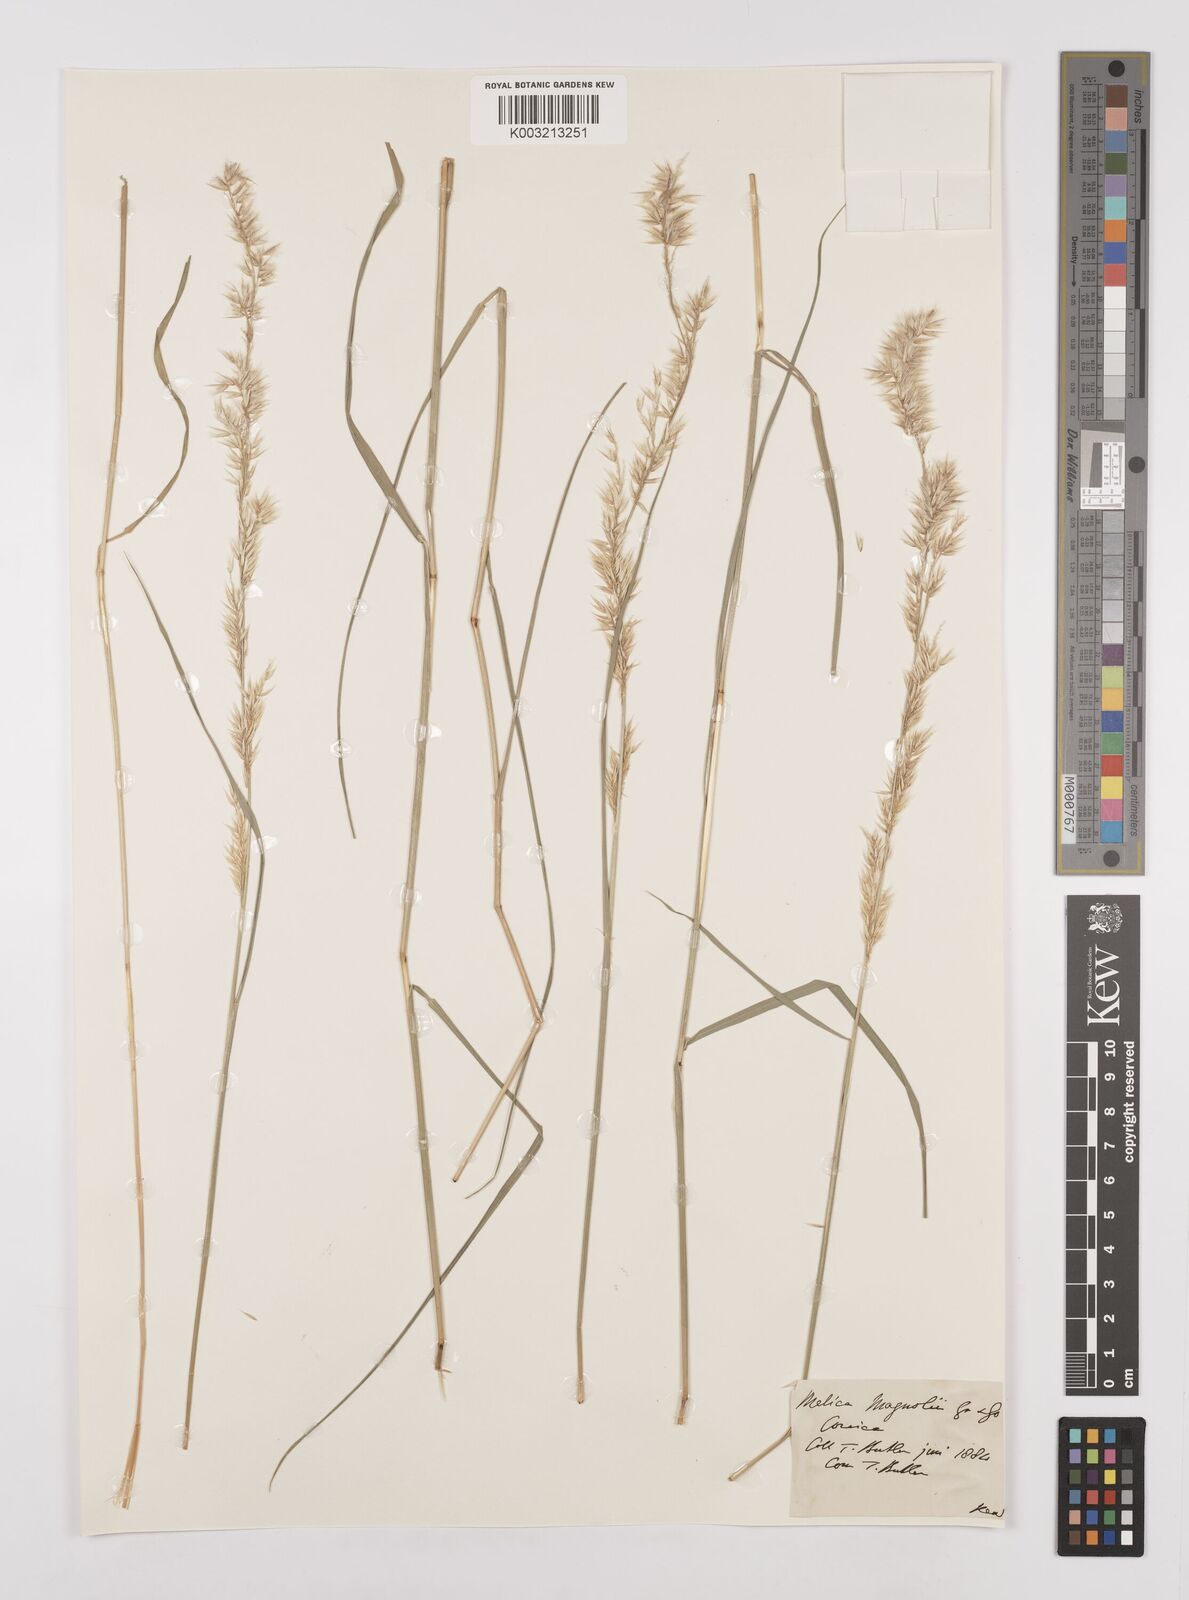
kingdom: Plantae
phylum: Tracheophyta
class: Liliopsida
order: Poales
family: Poaceae
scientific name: Poaceae
